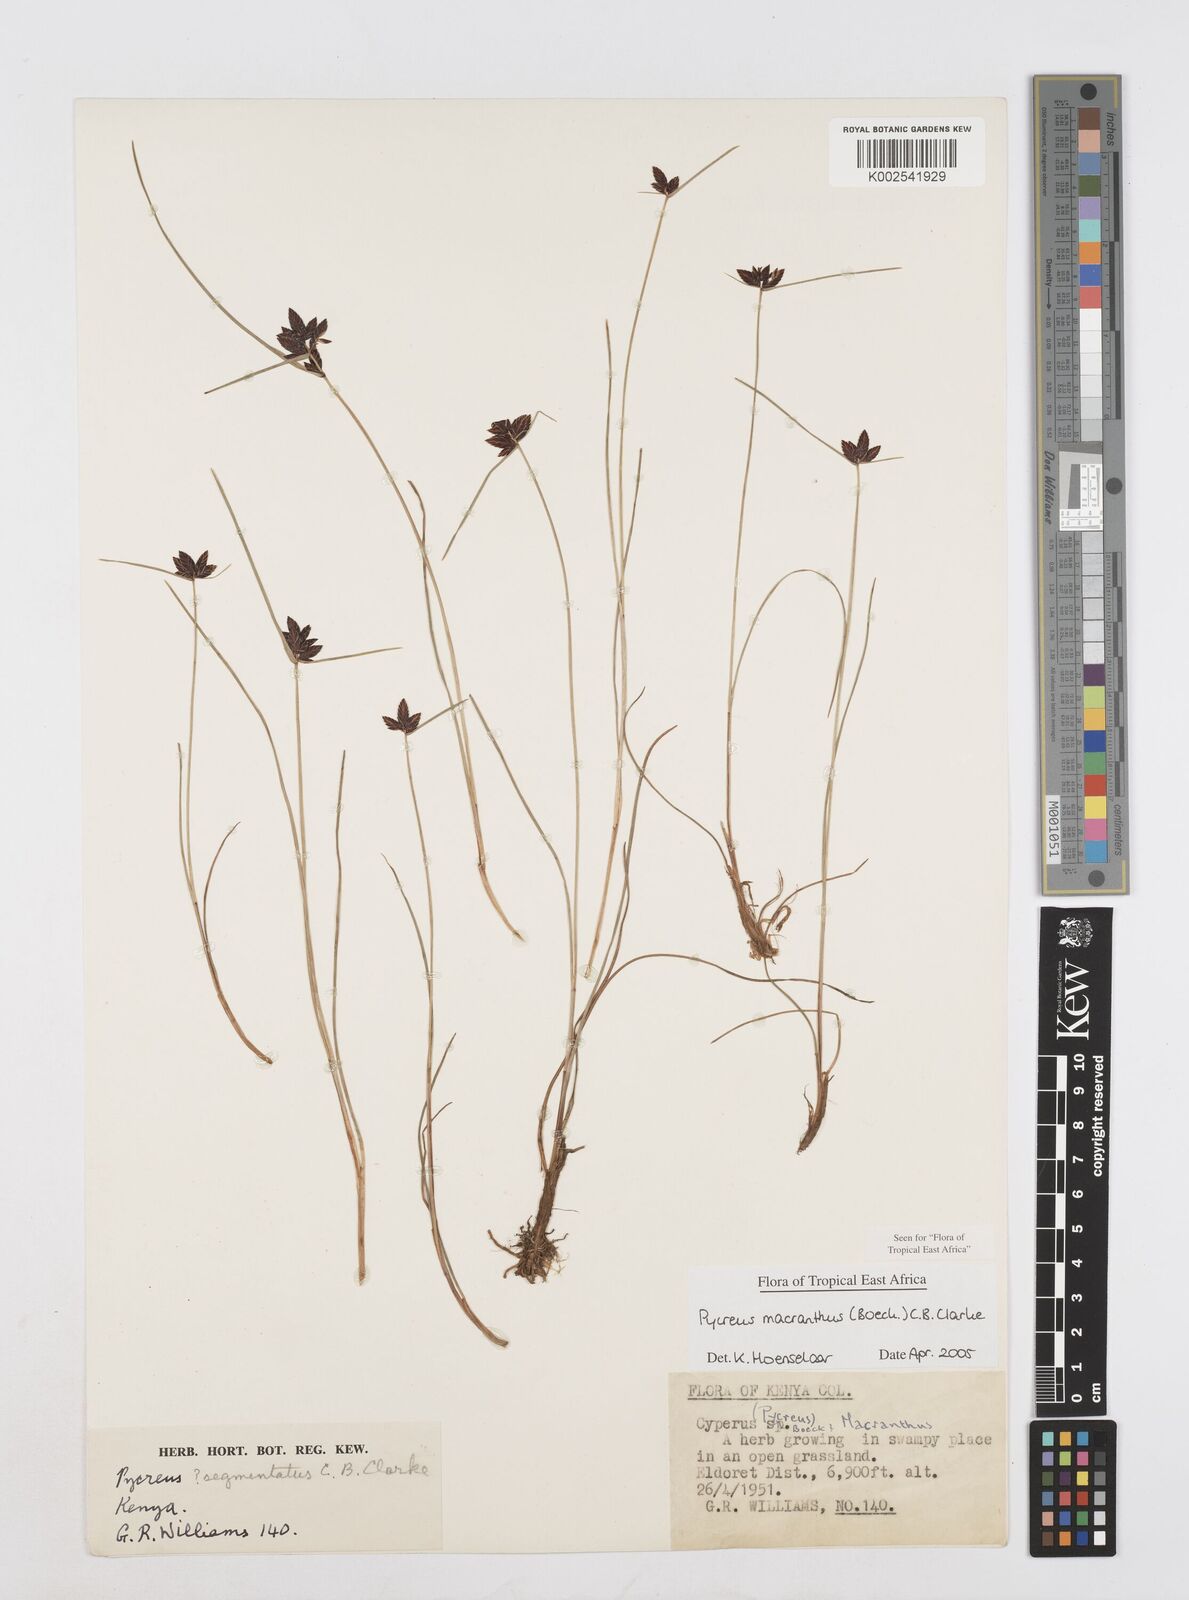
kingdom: Plantae
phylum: Tracheophyta
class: Liliopsida
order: Poales
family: Cyperaceae
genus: Cyperus
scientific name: Cyperus nigricans
